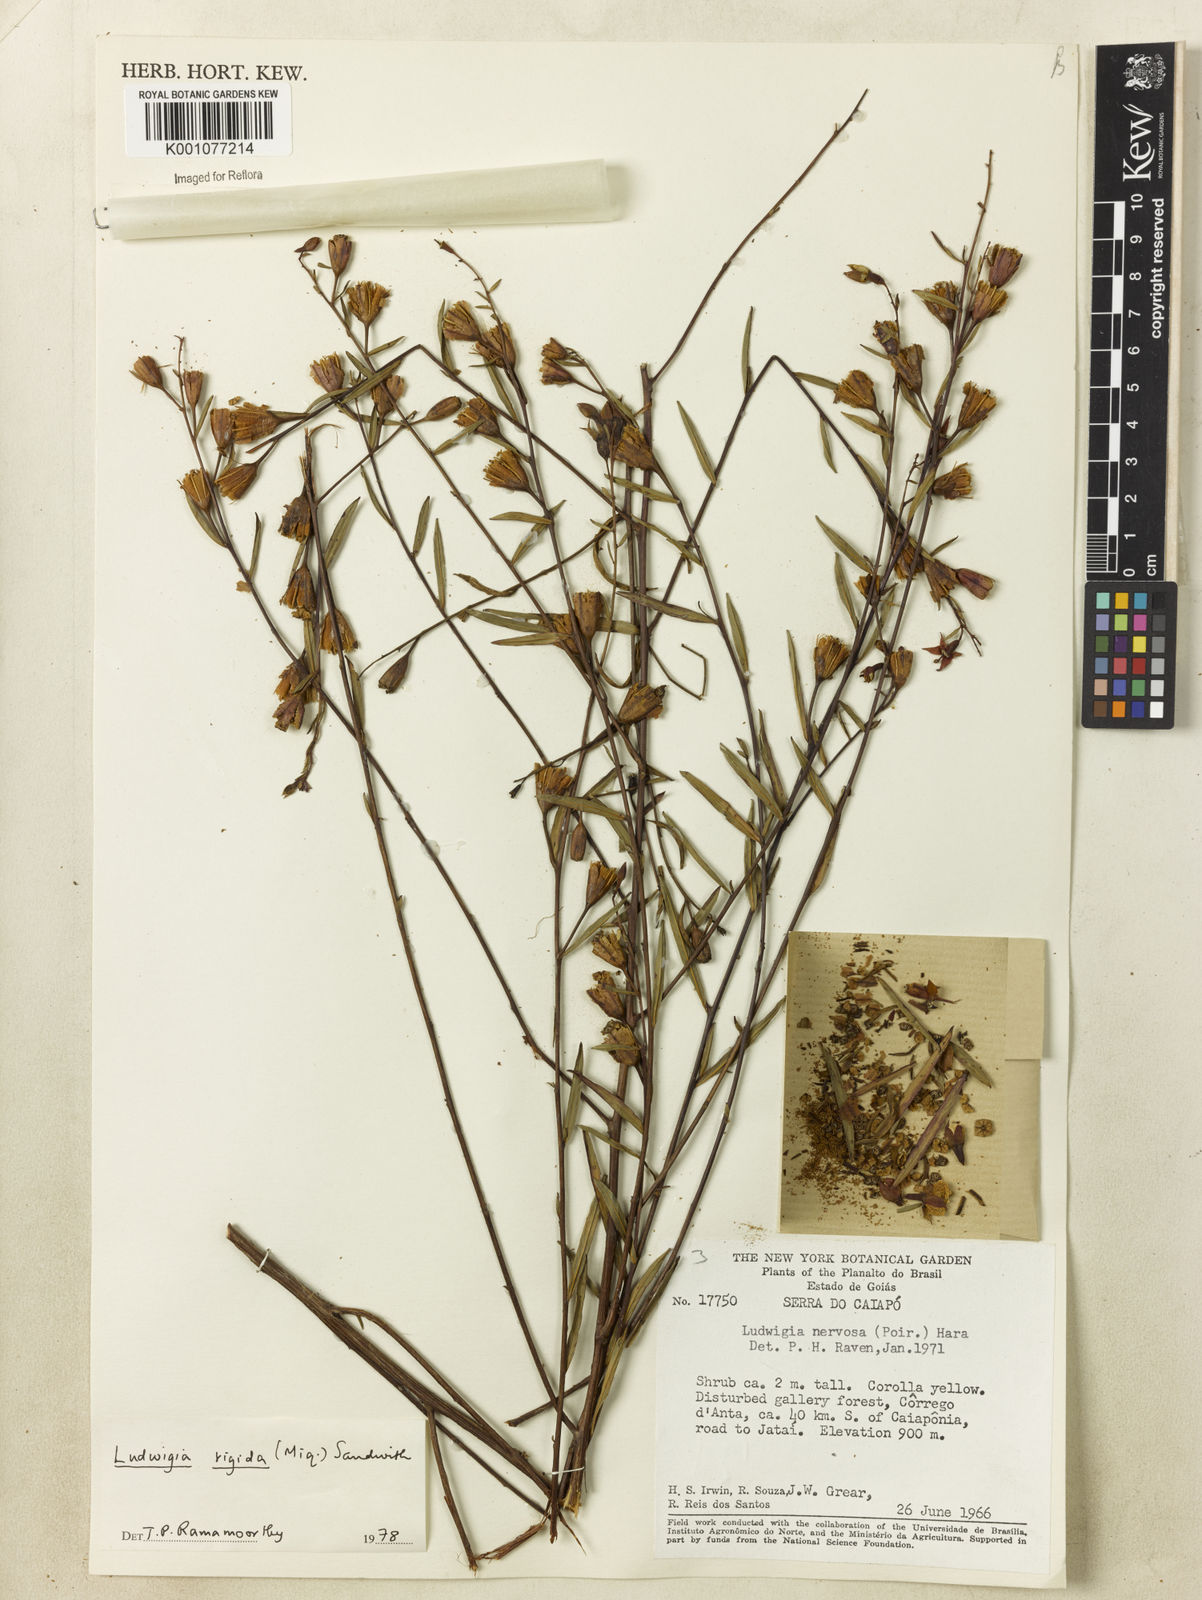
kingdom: Plantae
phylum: Tracheophyta
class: Magnoliopsida
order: Myrtales
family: Onagraceae
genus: Ludwigia
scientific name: Ludwigia rigida
